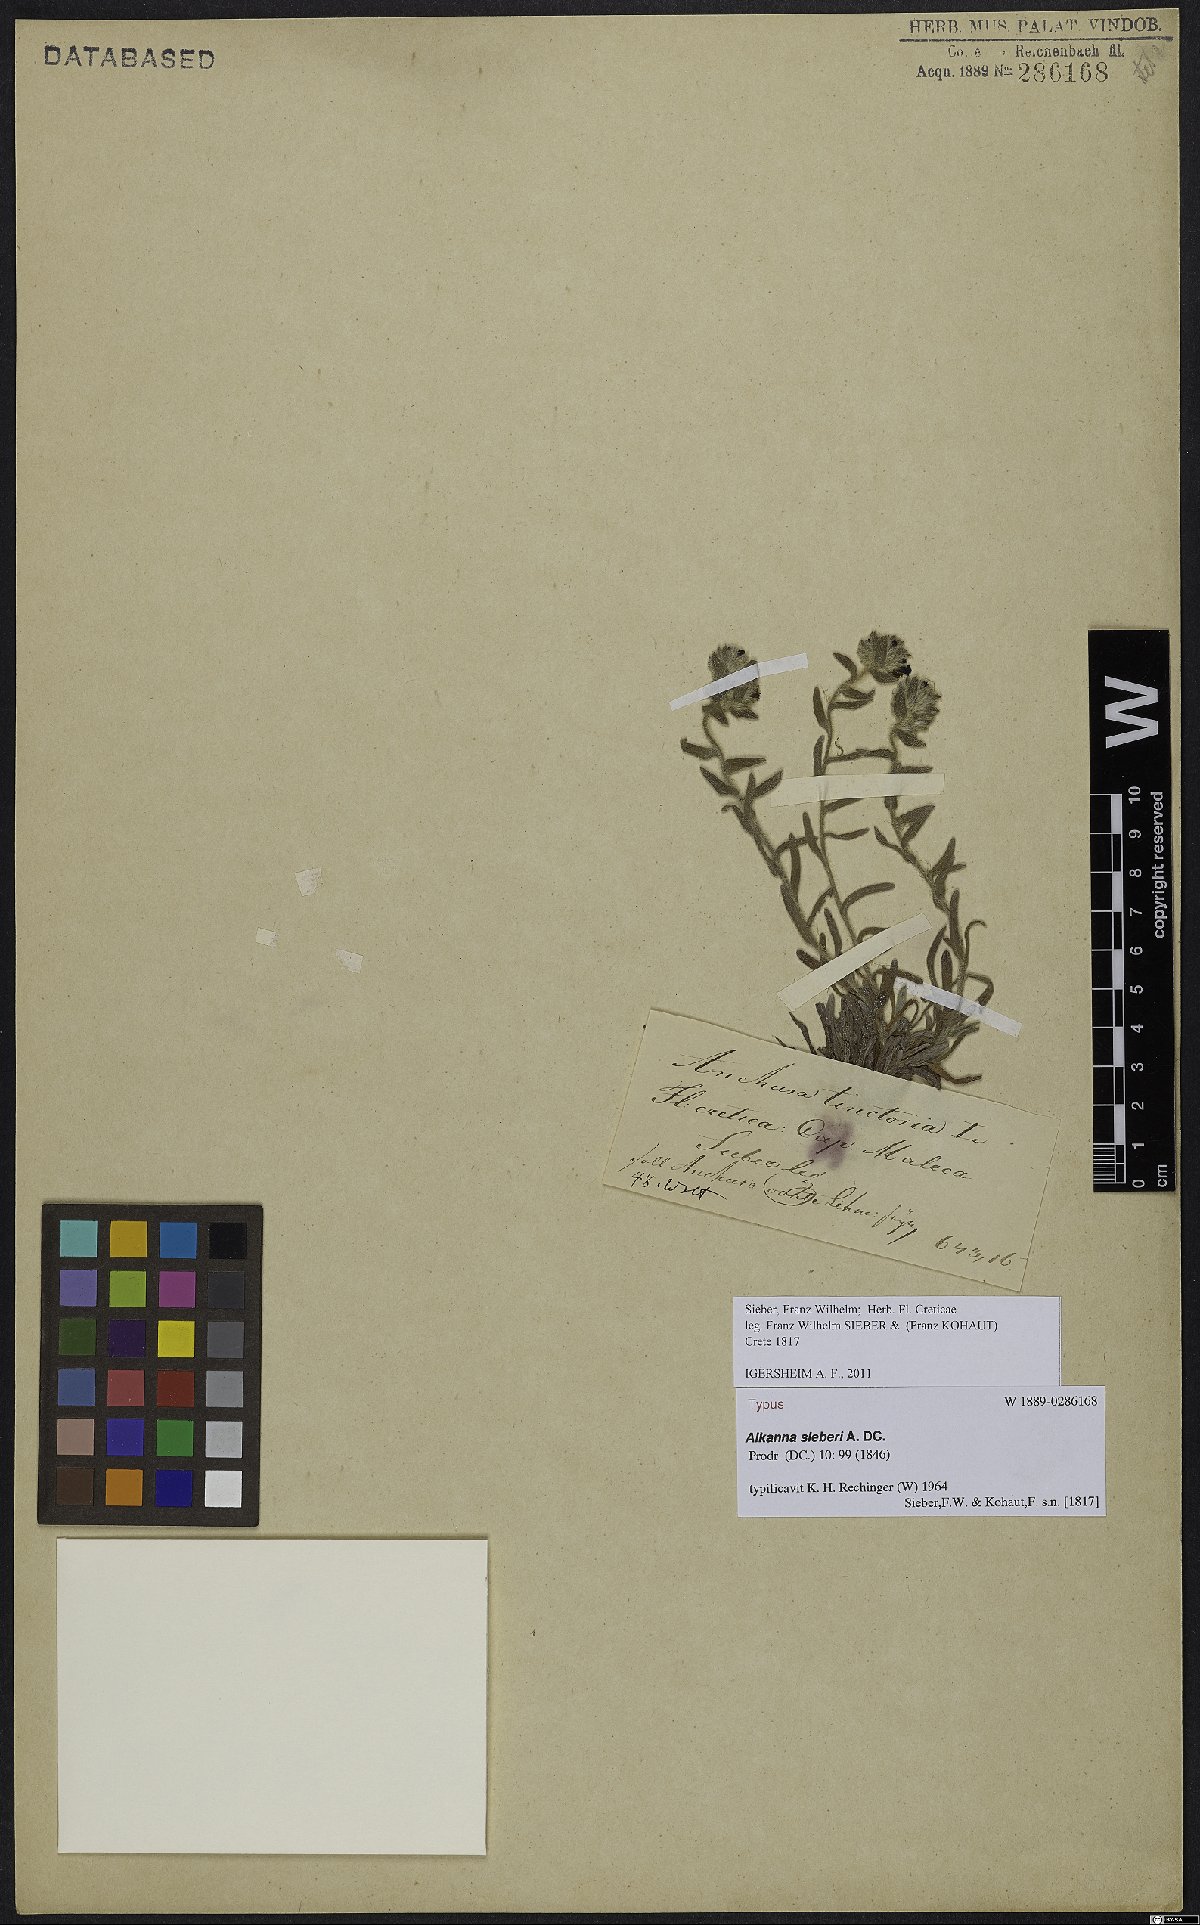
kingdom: Plantae
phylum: Tracheophyta
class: Magnoliopsida
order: Boraginales
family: Boraginaceae
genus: Alkanna
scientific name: Alkanna sieberi
